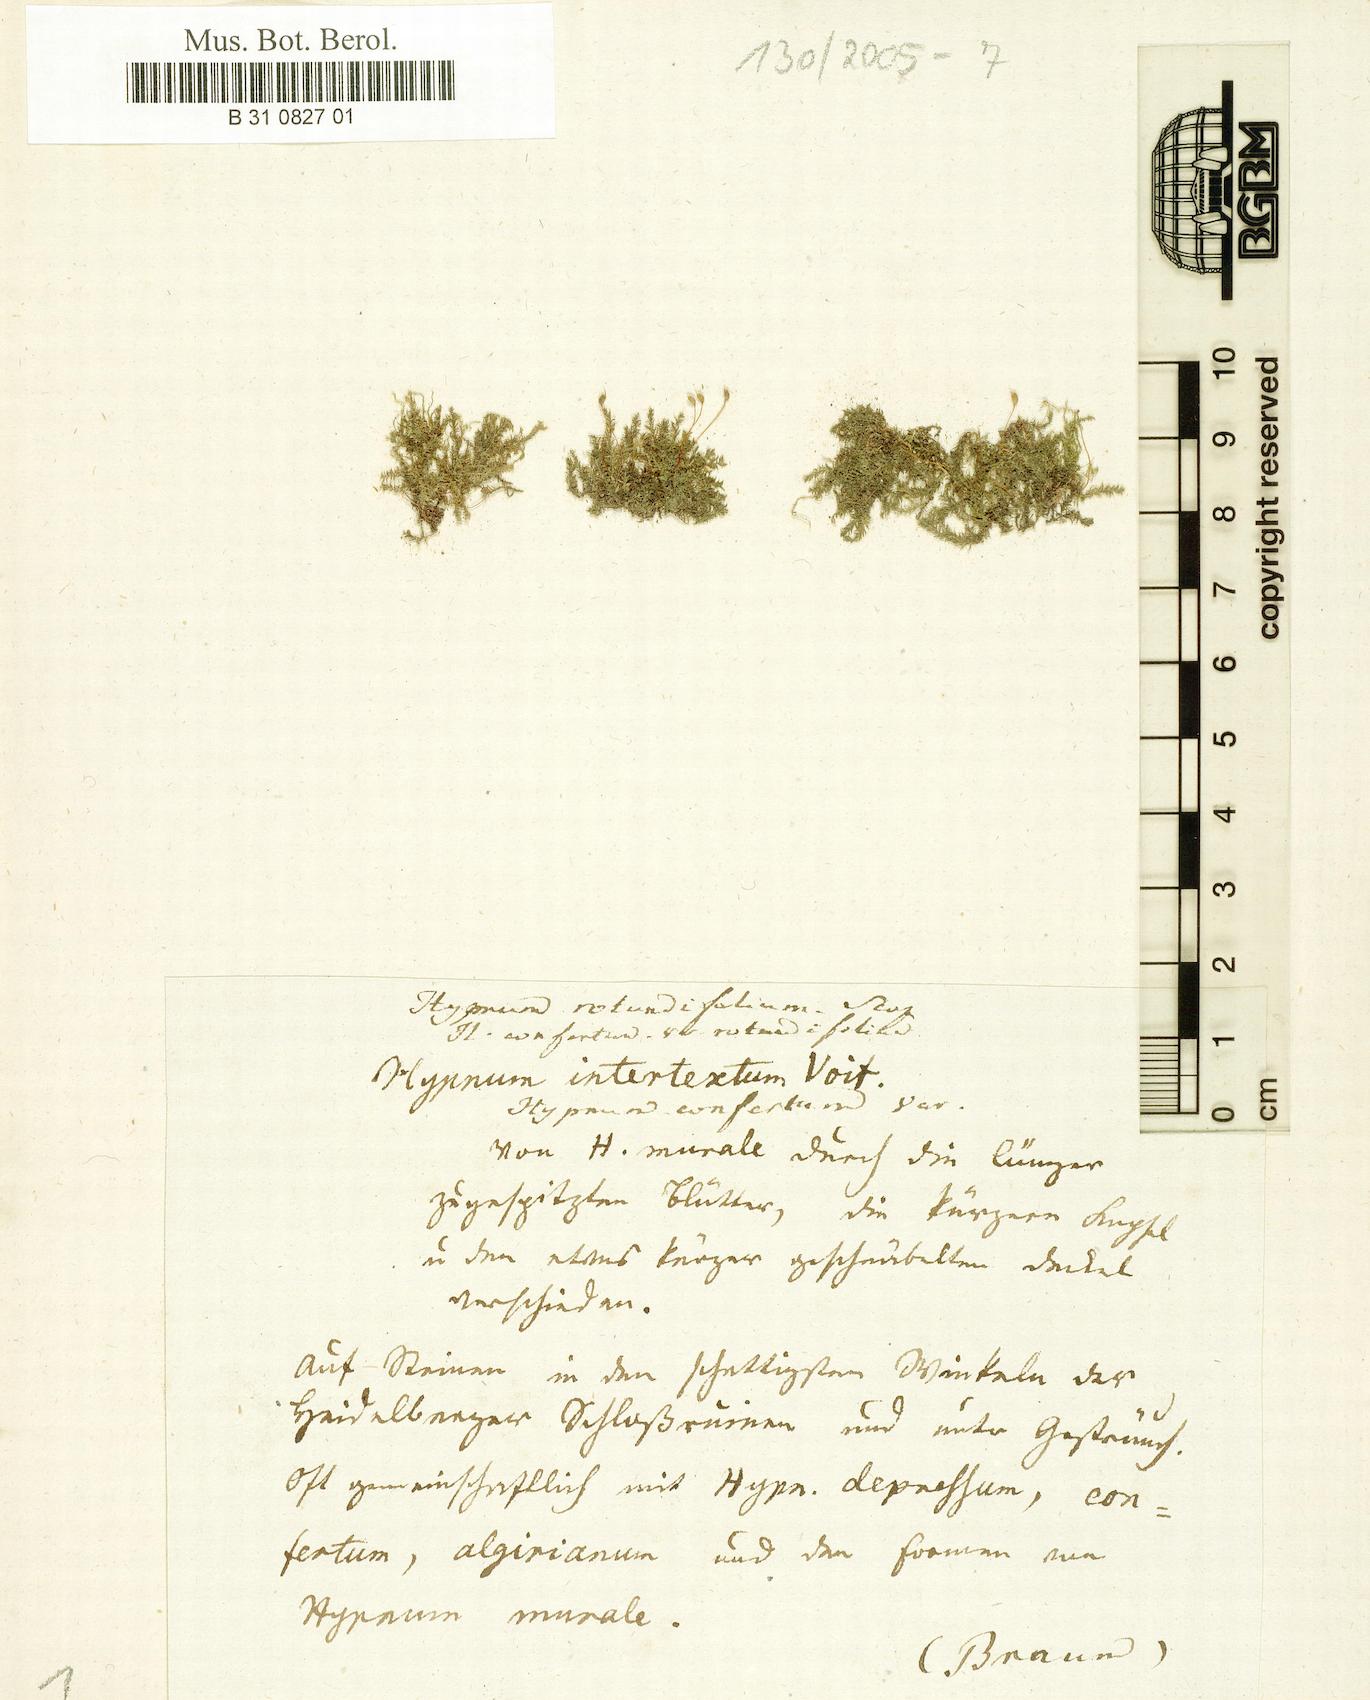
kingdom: Plantae
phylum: Bryophyta
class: Bryopsida
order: Hypnales
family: Brachytheciaceae
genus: Rhynchostegium
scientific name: Rhynchostegium rotundifolium
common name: Round-leaved feather-moss
